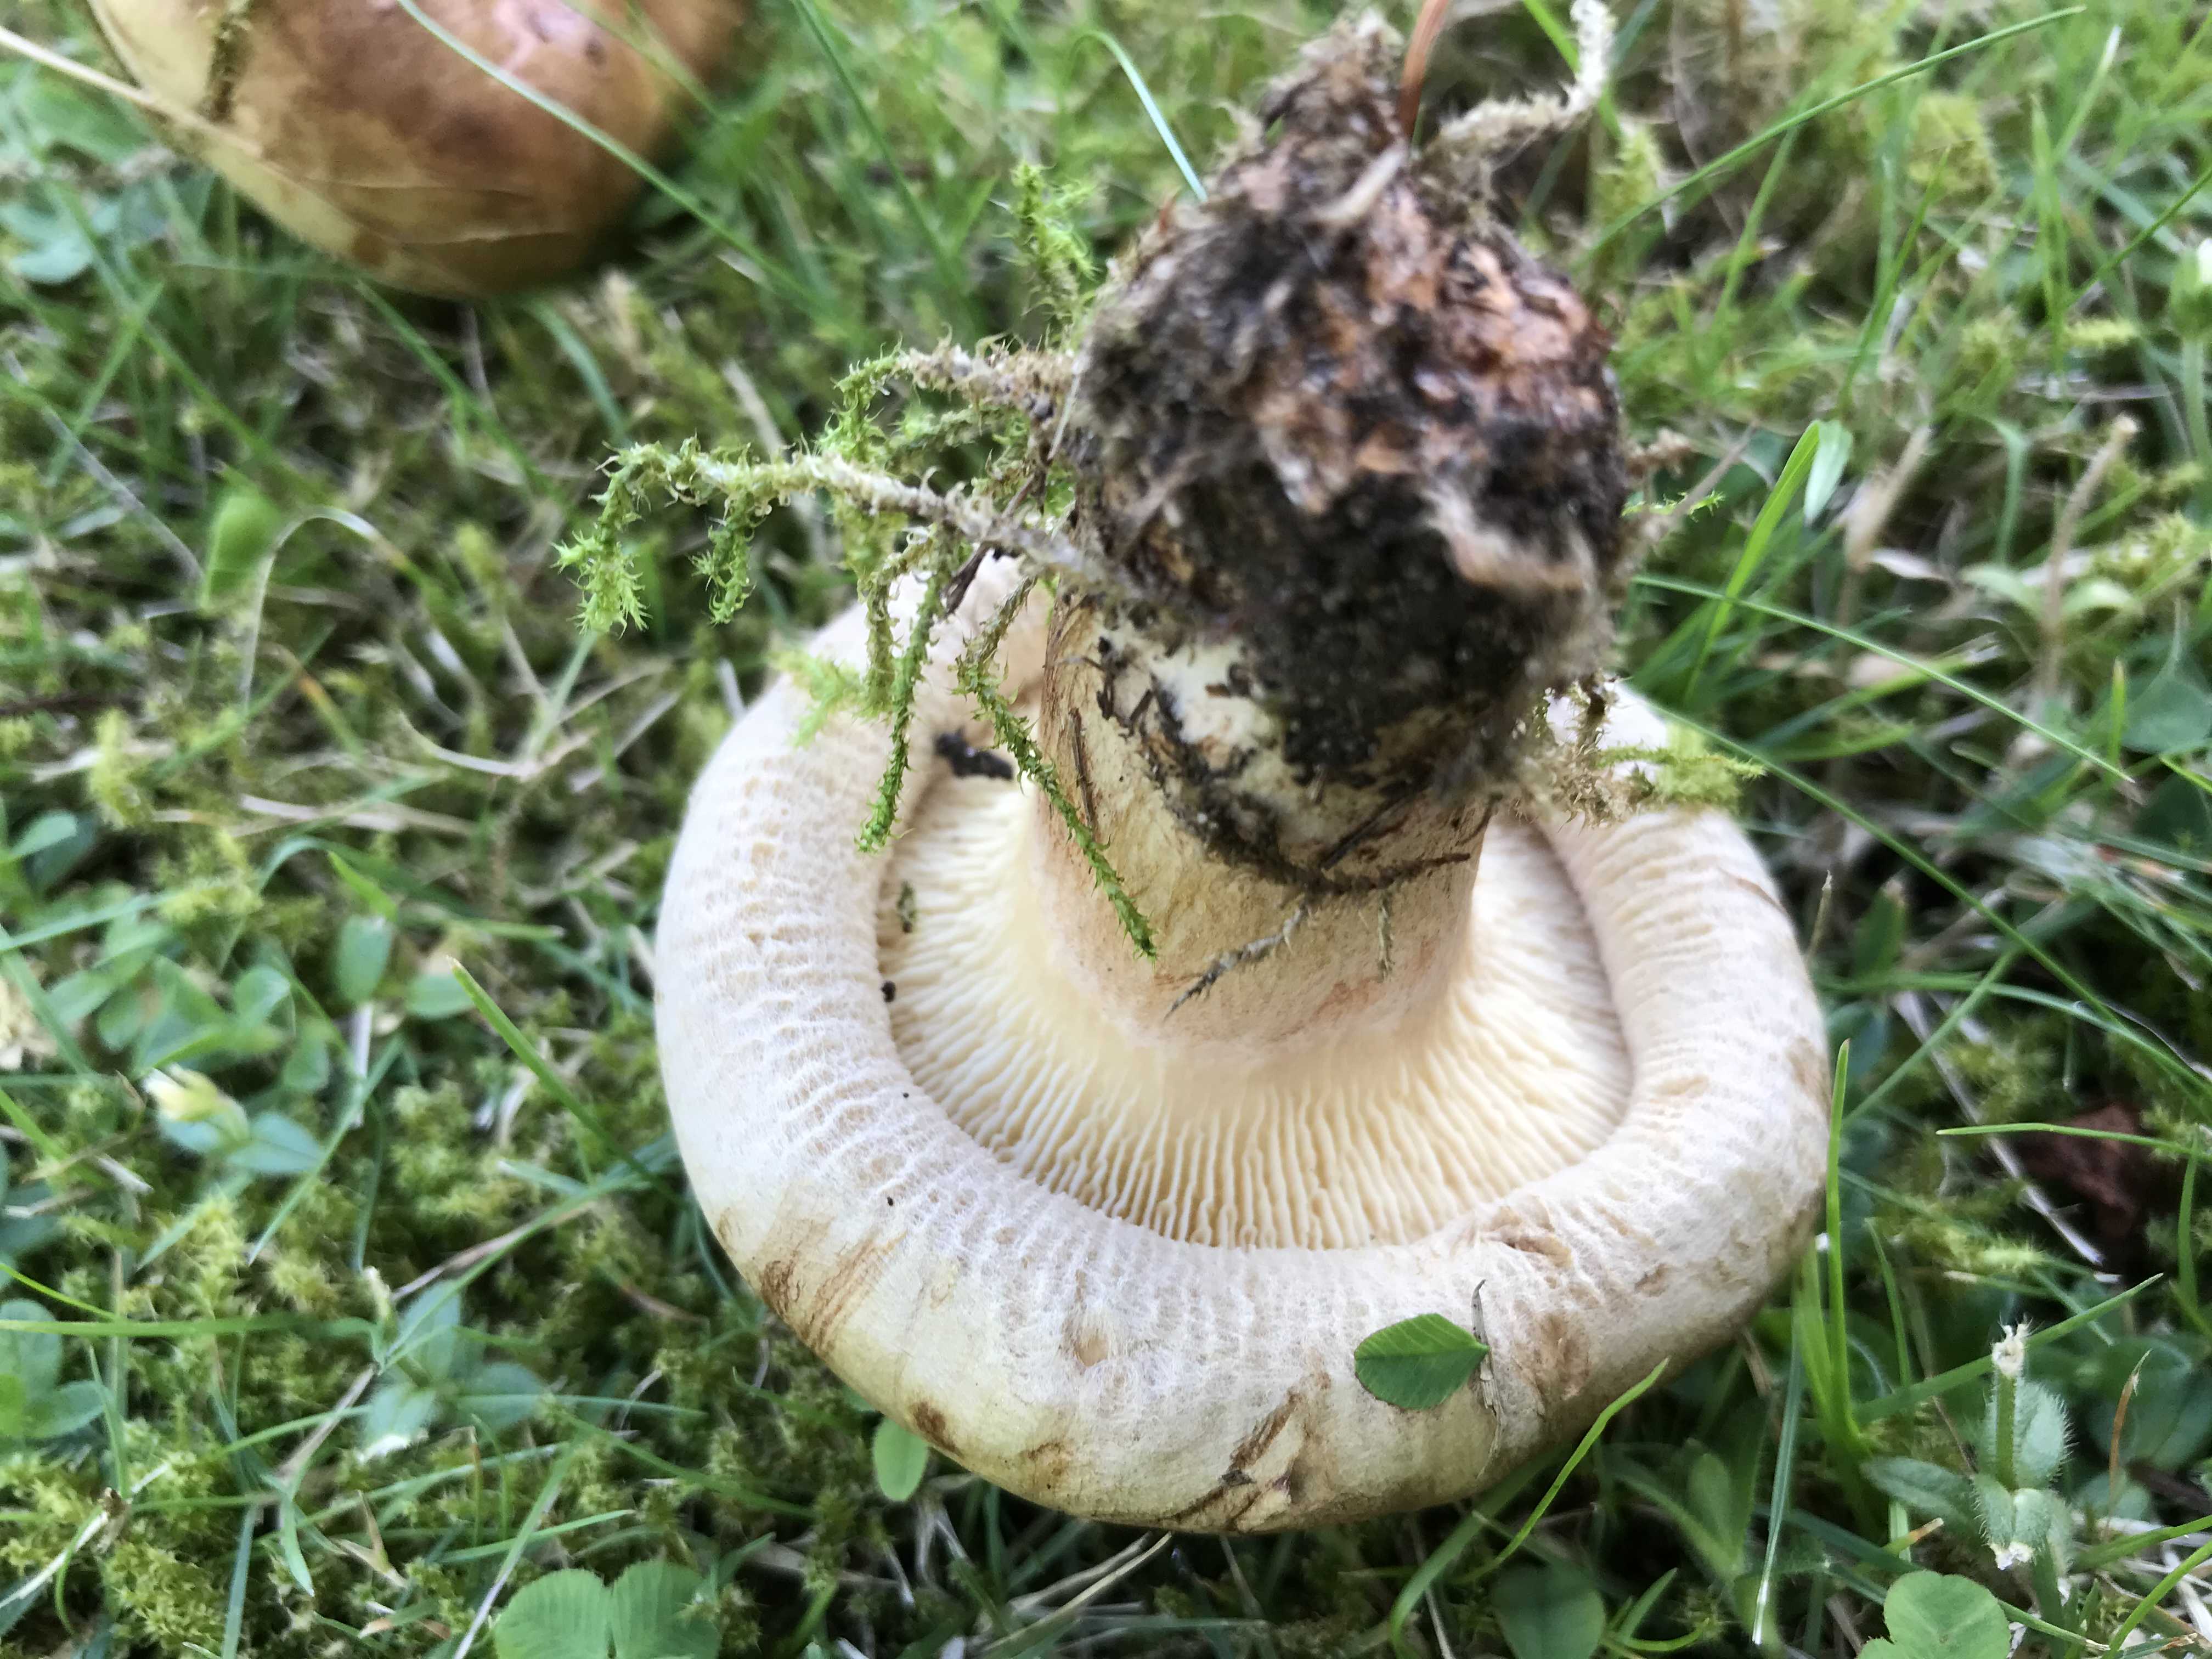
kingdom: Fungi
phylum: Basidiomycota
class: Agaricomycetes
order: Boletales
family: Paxillaceae
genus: Paxillus
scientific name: Paxillus involutus
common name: almindelig netbladhat
